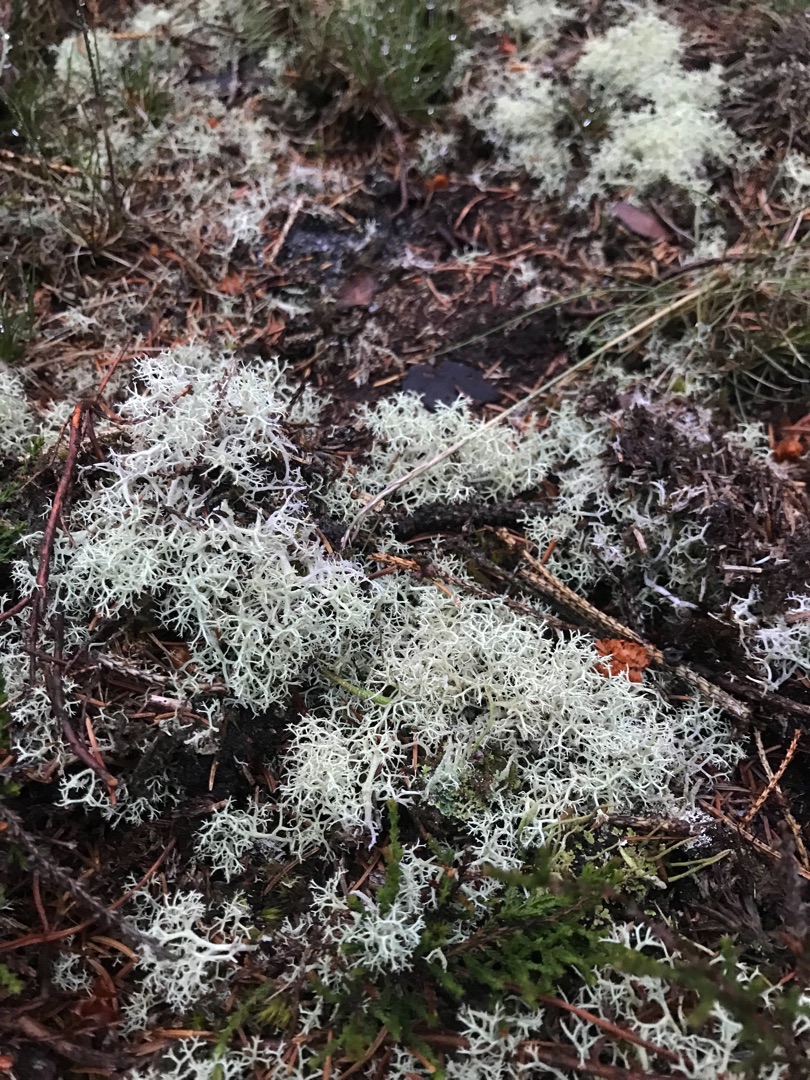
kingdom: Fungi
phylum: Ascomycota
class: Lecanoromycetes
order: Lecanorales
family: Cladoniaceae
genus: Cladonia
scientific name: Cladonia portentosa
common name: Hede-rensdyrlav
